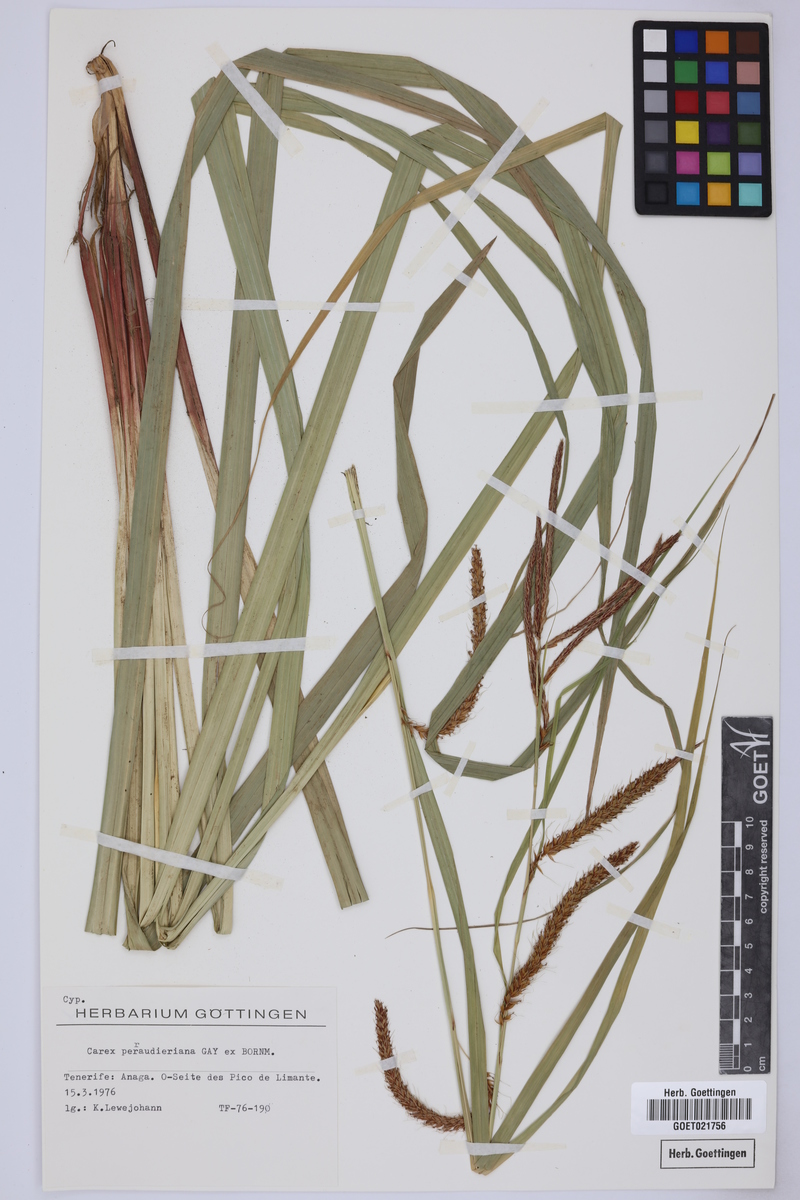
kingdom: Plantae
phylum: Tracheophyta
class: Liliopsida
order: Poales
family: Cyperaceae
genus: Carex
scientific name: Carex perraudieriana
